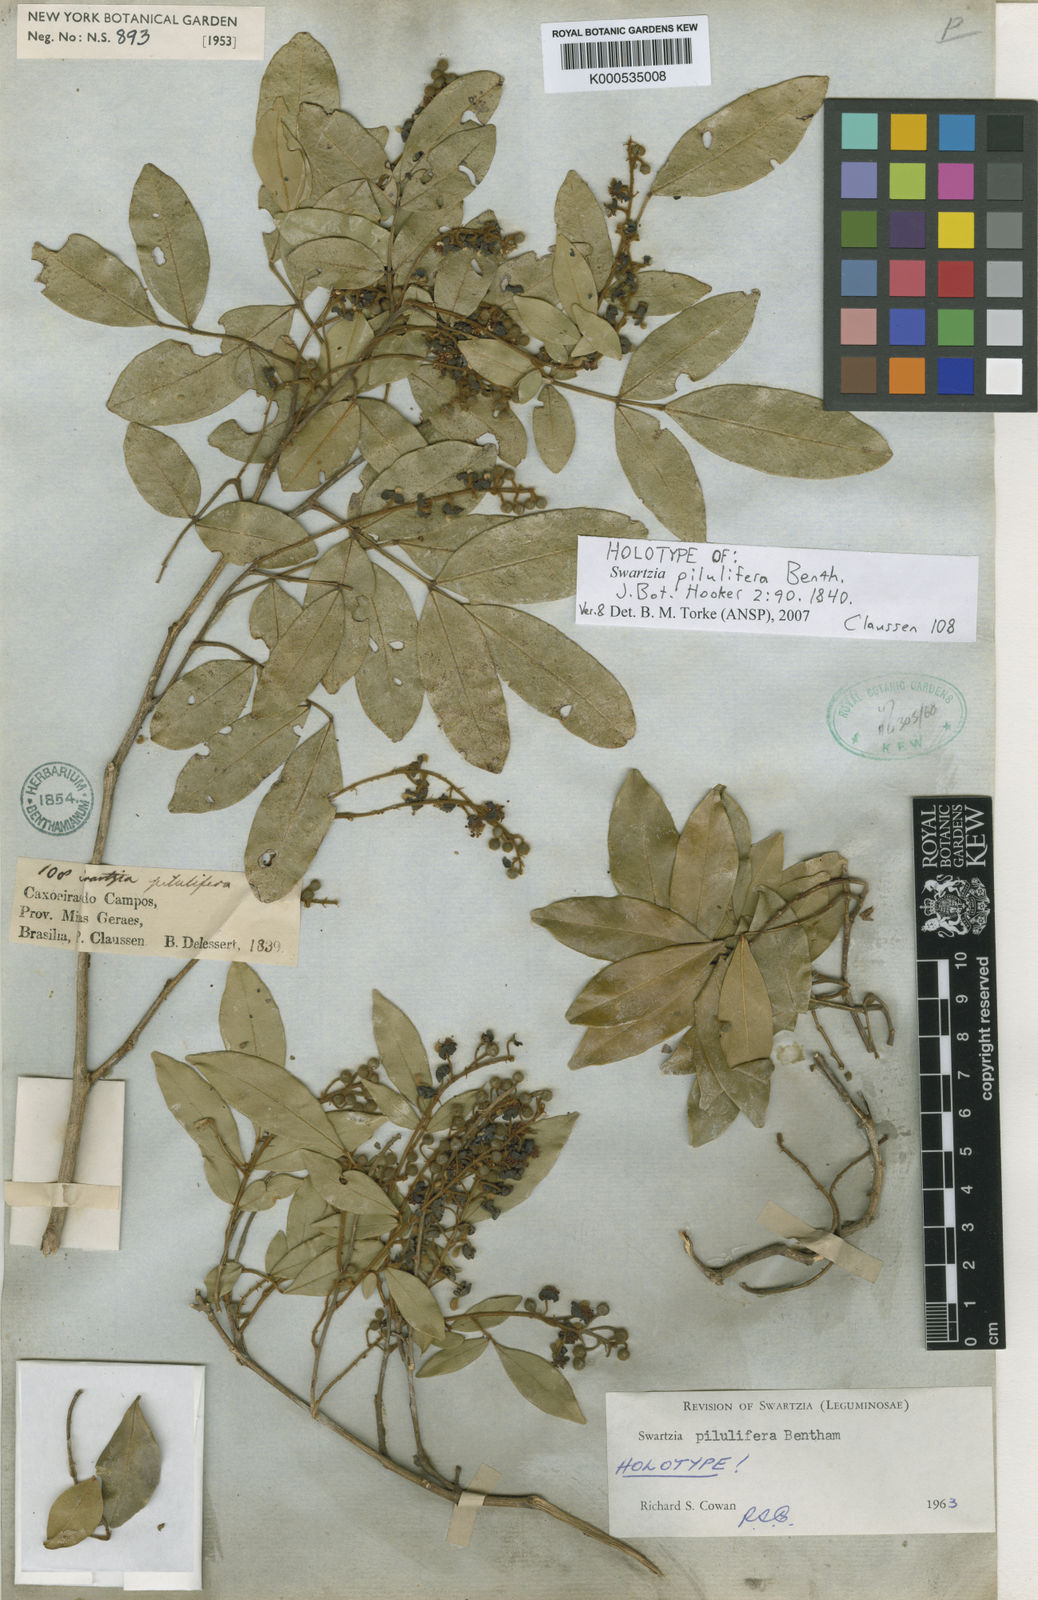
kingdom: Plantae
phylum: Tracheophyta
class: Magnoliopsida
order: Fabales
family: Fabaceae
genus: Swartzia
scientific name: Swartzia pilulifera
